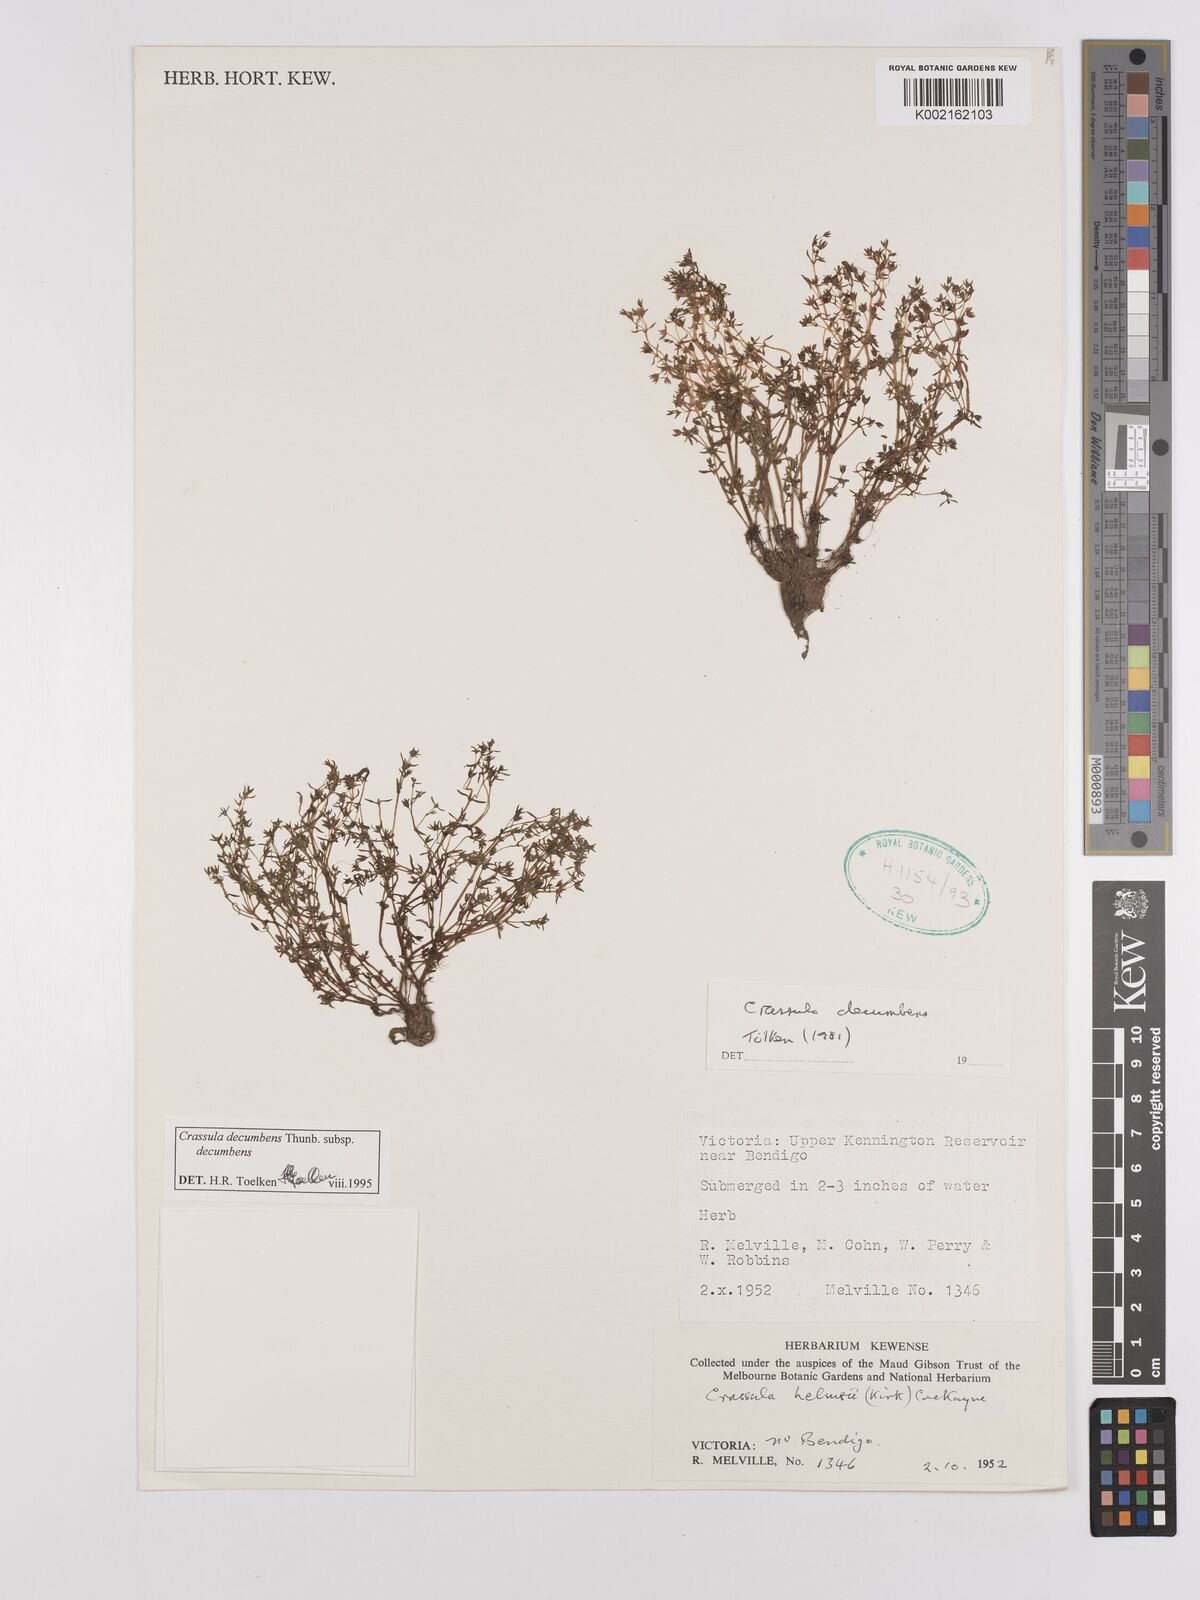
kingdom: Plantae
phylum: Tracheophyta
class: Magnoliopsida
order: Saxifragales
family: Crassulaceae
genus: Crassula
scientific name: Crassula decumbens
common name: Scilly pigmyweed
